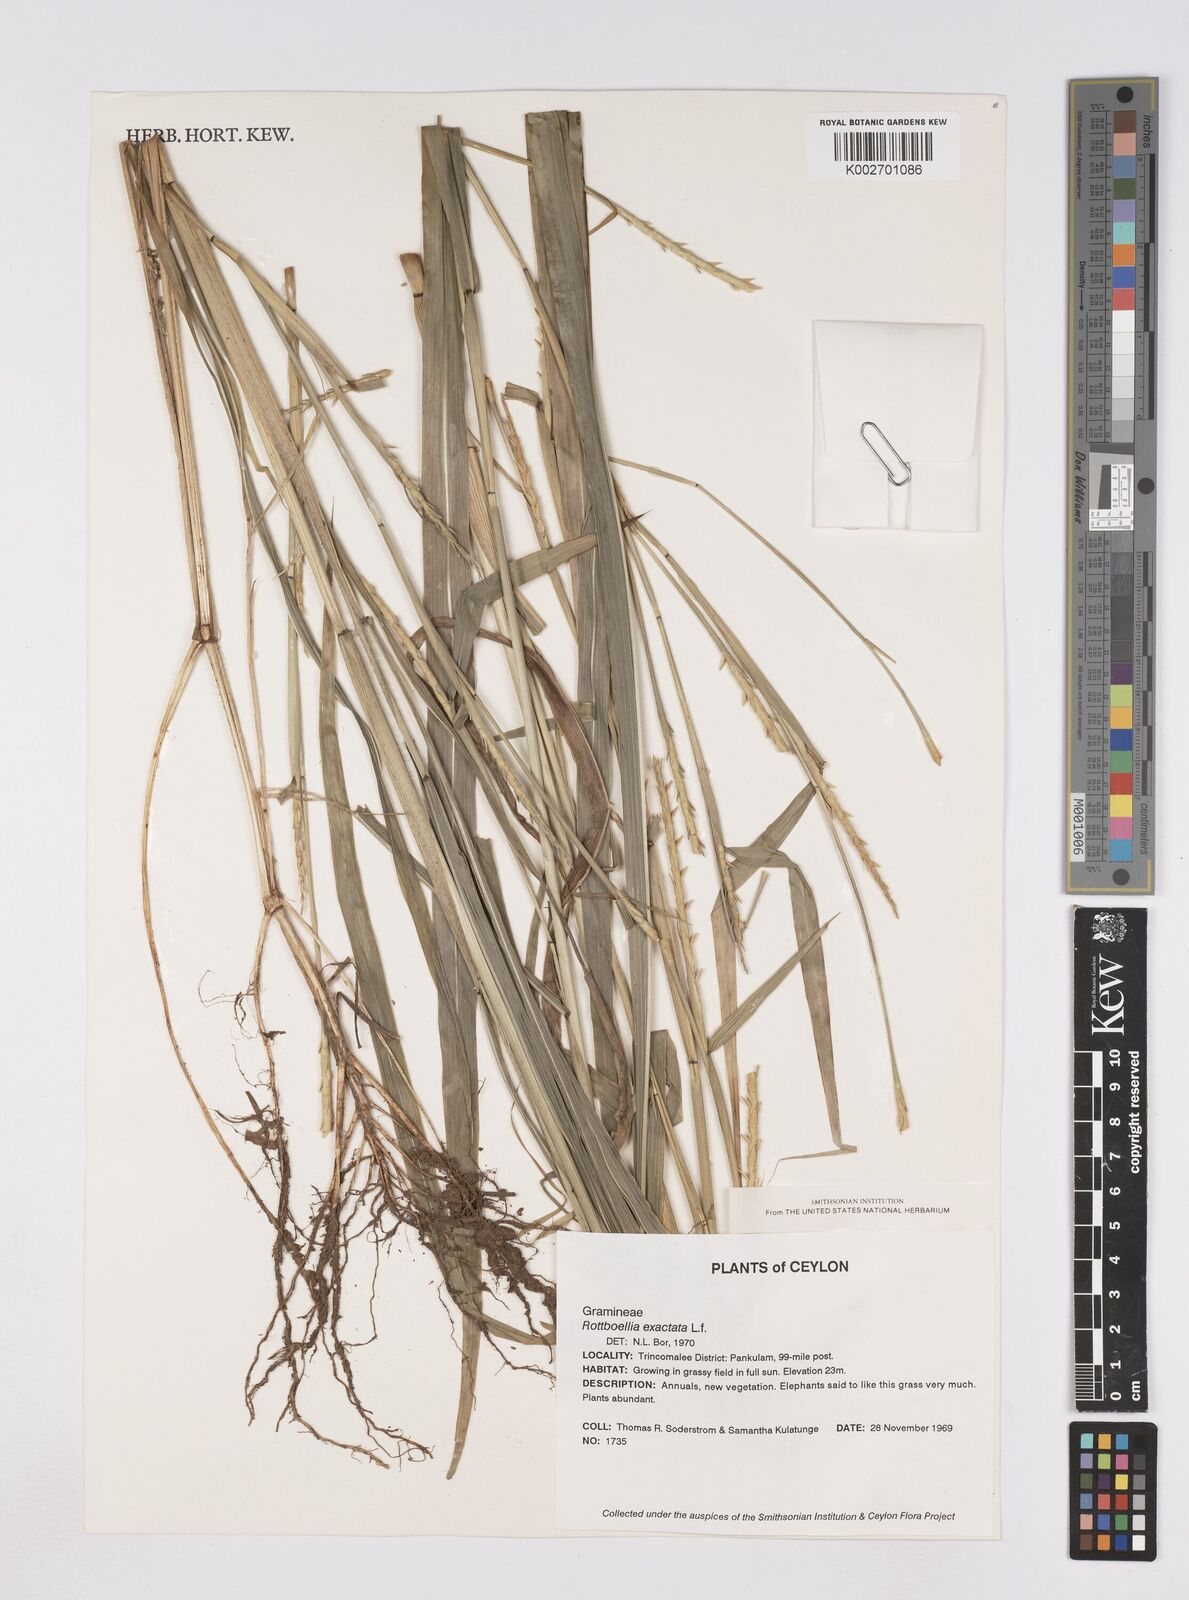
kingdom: Plantae
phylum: Tracheophyta
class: Liliopsida
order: Poales
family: Poaceae
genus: Ophiuros
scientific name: Ophiuros exaltatus
